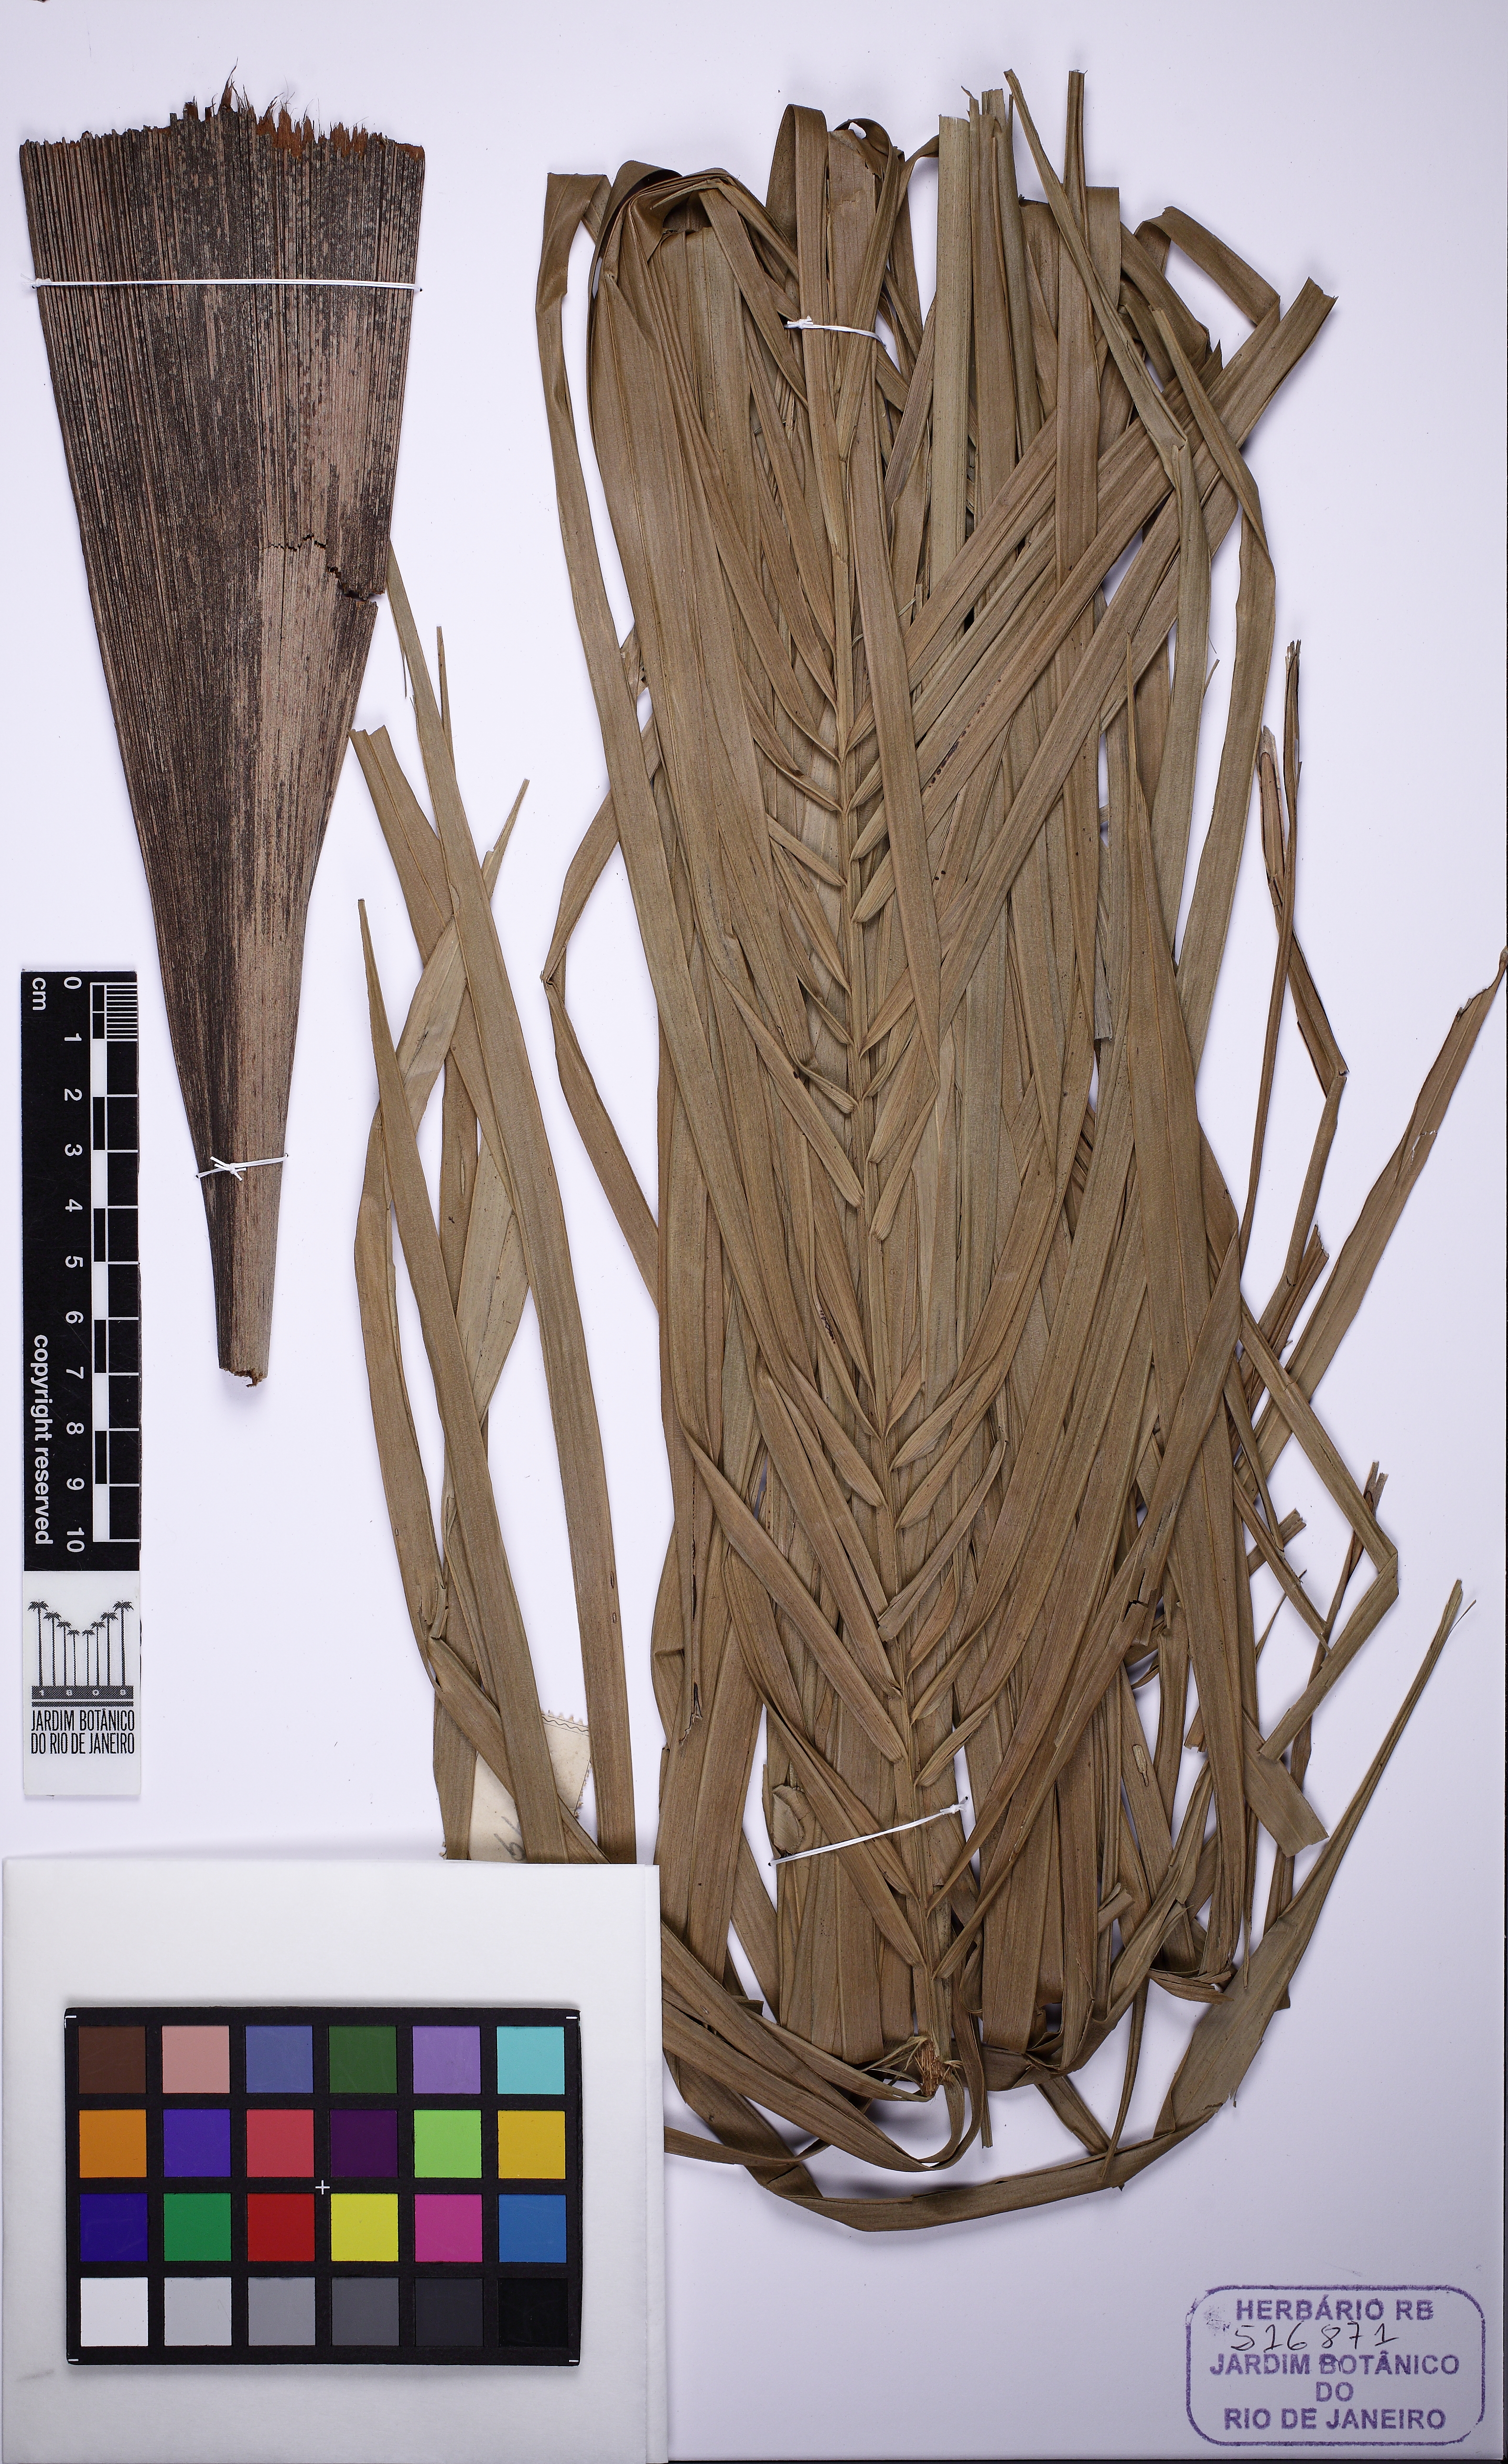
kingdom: Plantae
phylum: Tracheophyta
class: Liliopsida
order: Arecales
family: Arecaceae
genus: Syagrus
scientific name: Syagrus cocoides
